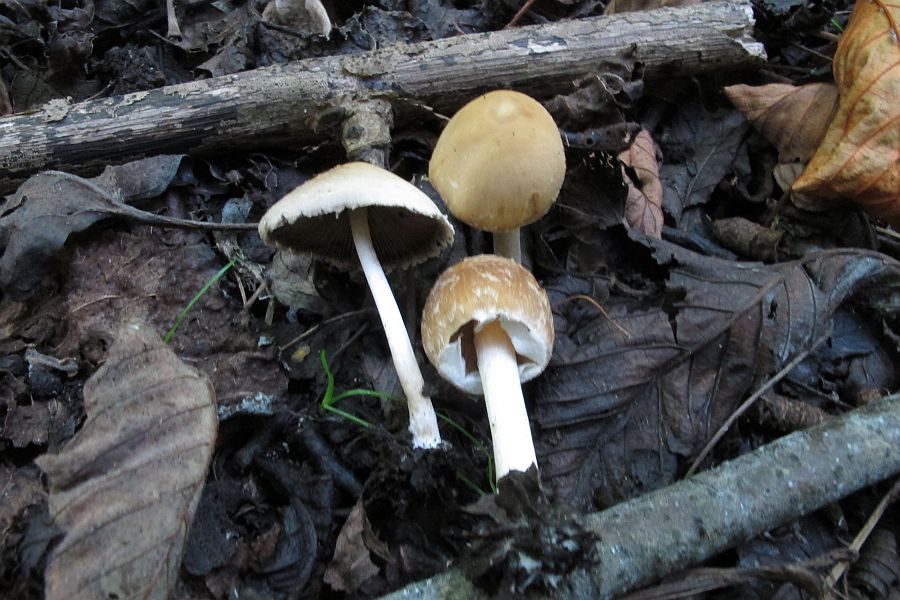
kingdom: Fungi
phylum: Basidiomycota
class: Agaricomycetes
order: Agaricales
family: Psathyrellaceae
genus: Candolleomyces
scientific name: Candolleomyces candolleanus
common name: Candolles mørkhat
